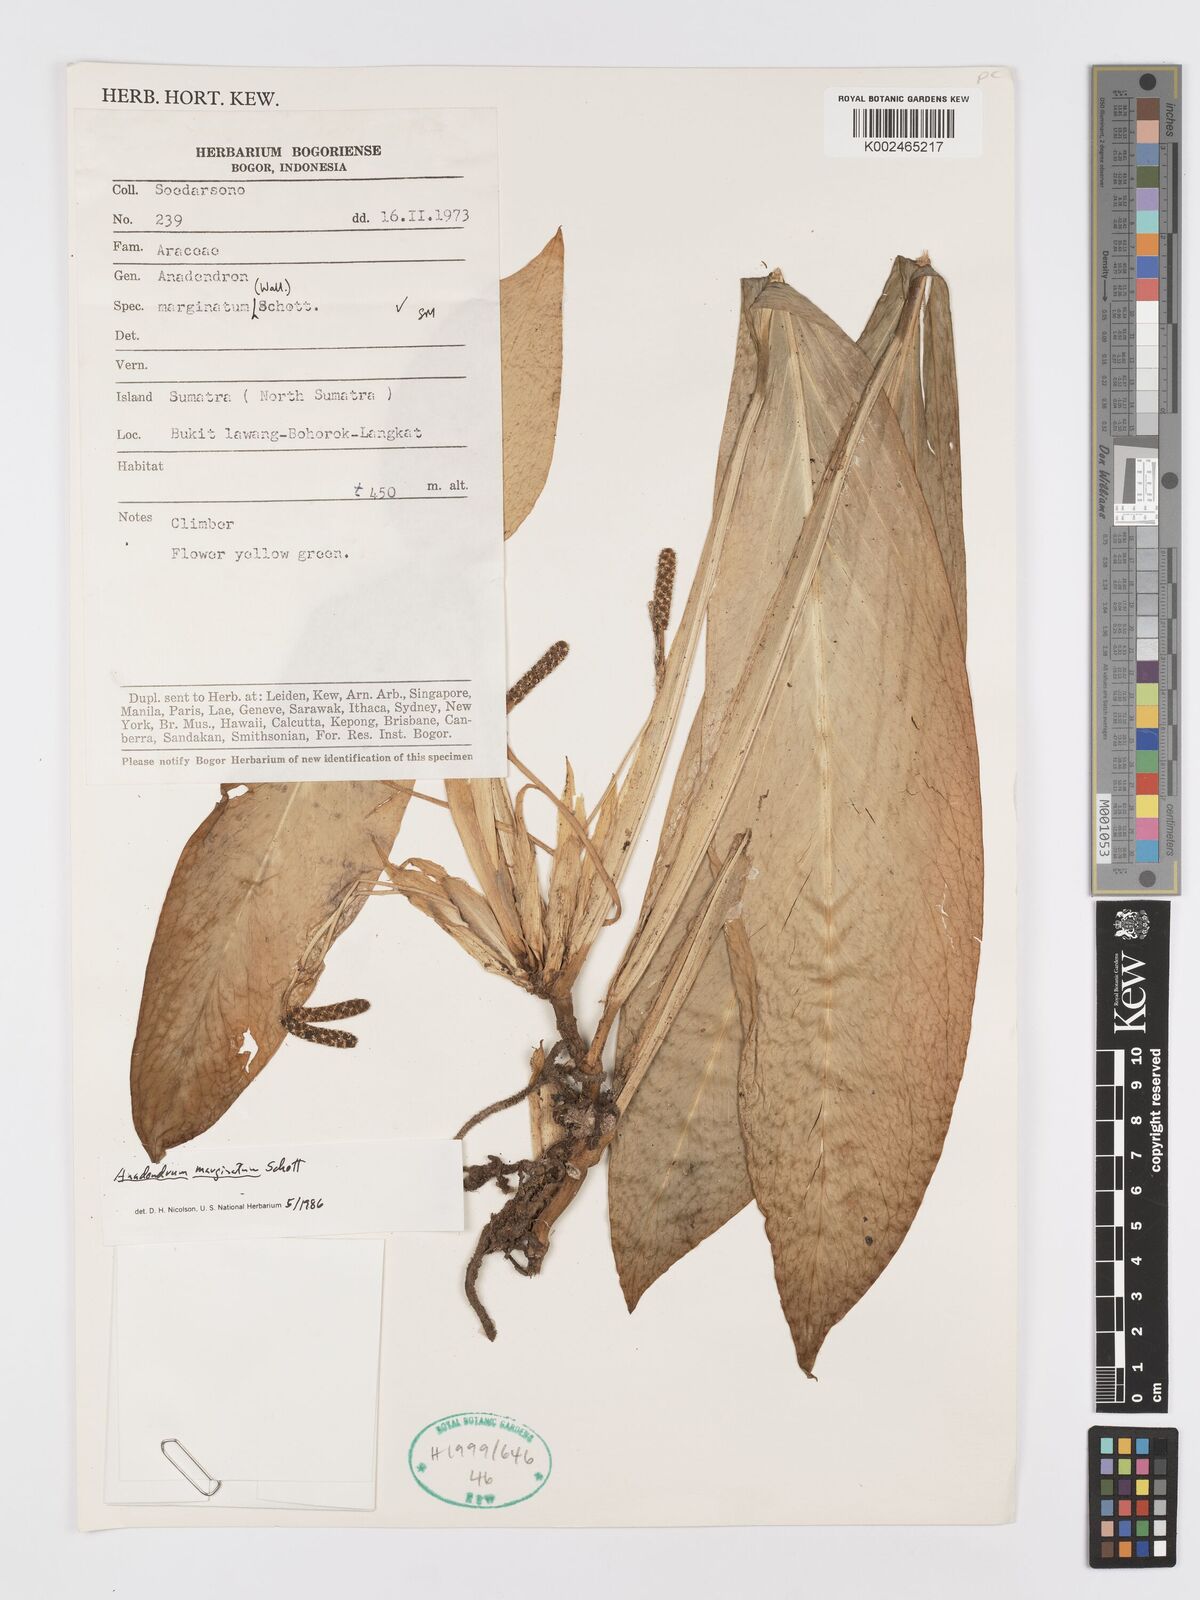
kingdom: Plantae
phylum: Tracheophyta
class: Liliopsida
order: Alismatales
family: Araceae
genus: Anadendrum
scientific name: Anadendrum marginatum
